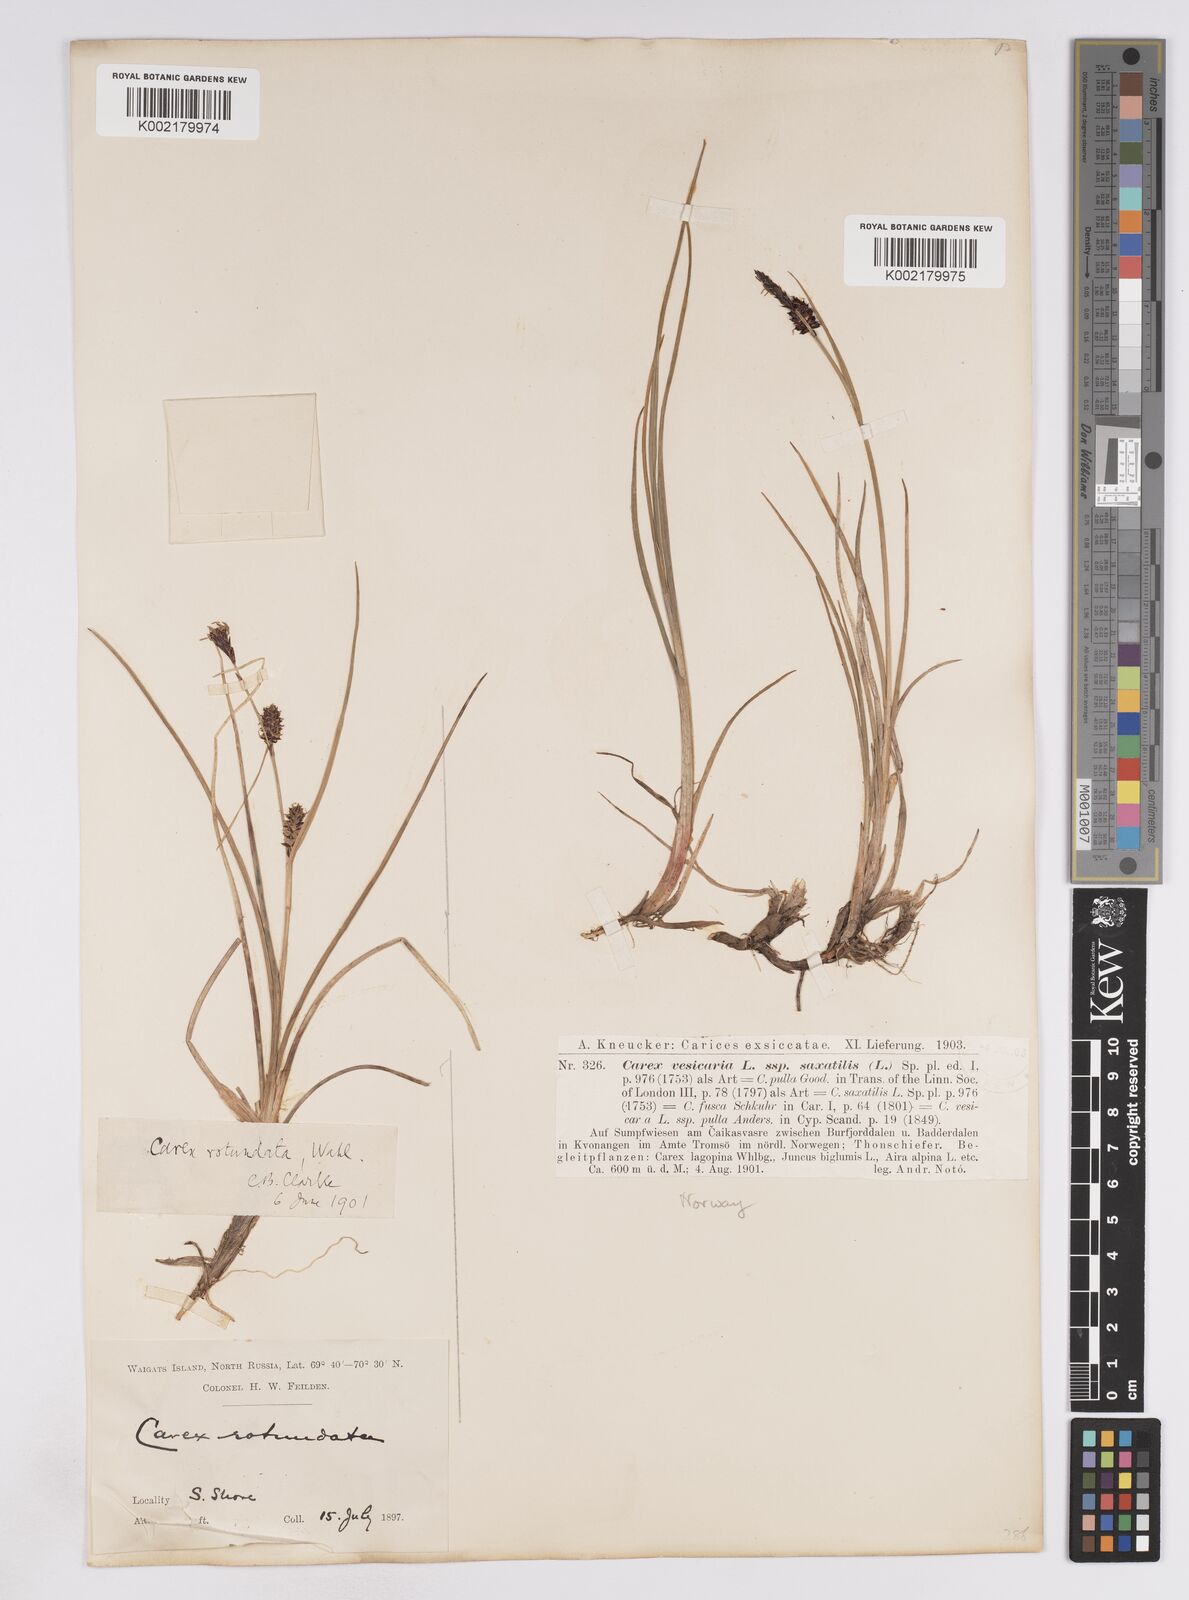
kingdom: Plantae
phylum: Tracheophyta
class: Liliopsida
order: Poales
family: Cyperaceae
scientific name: Cyperaceae
